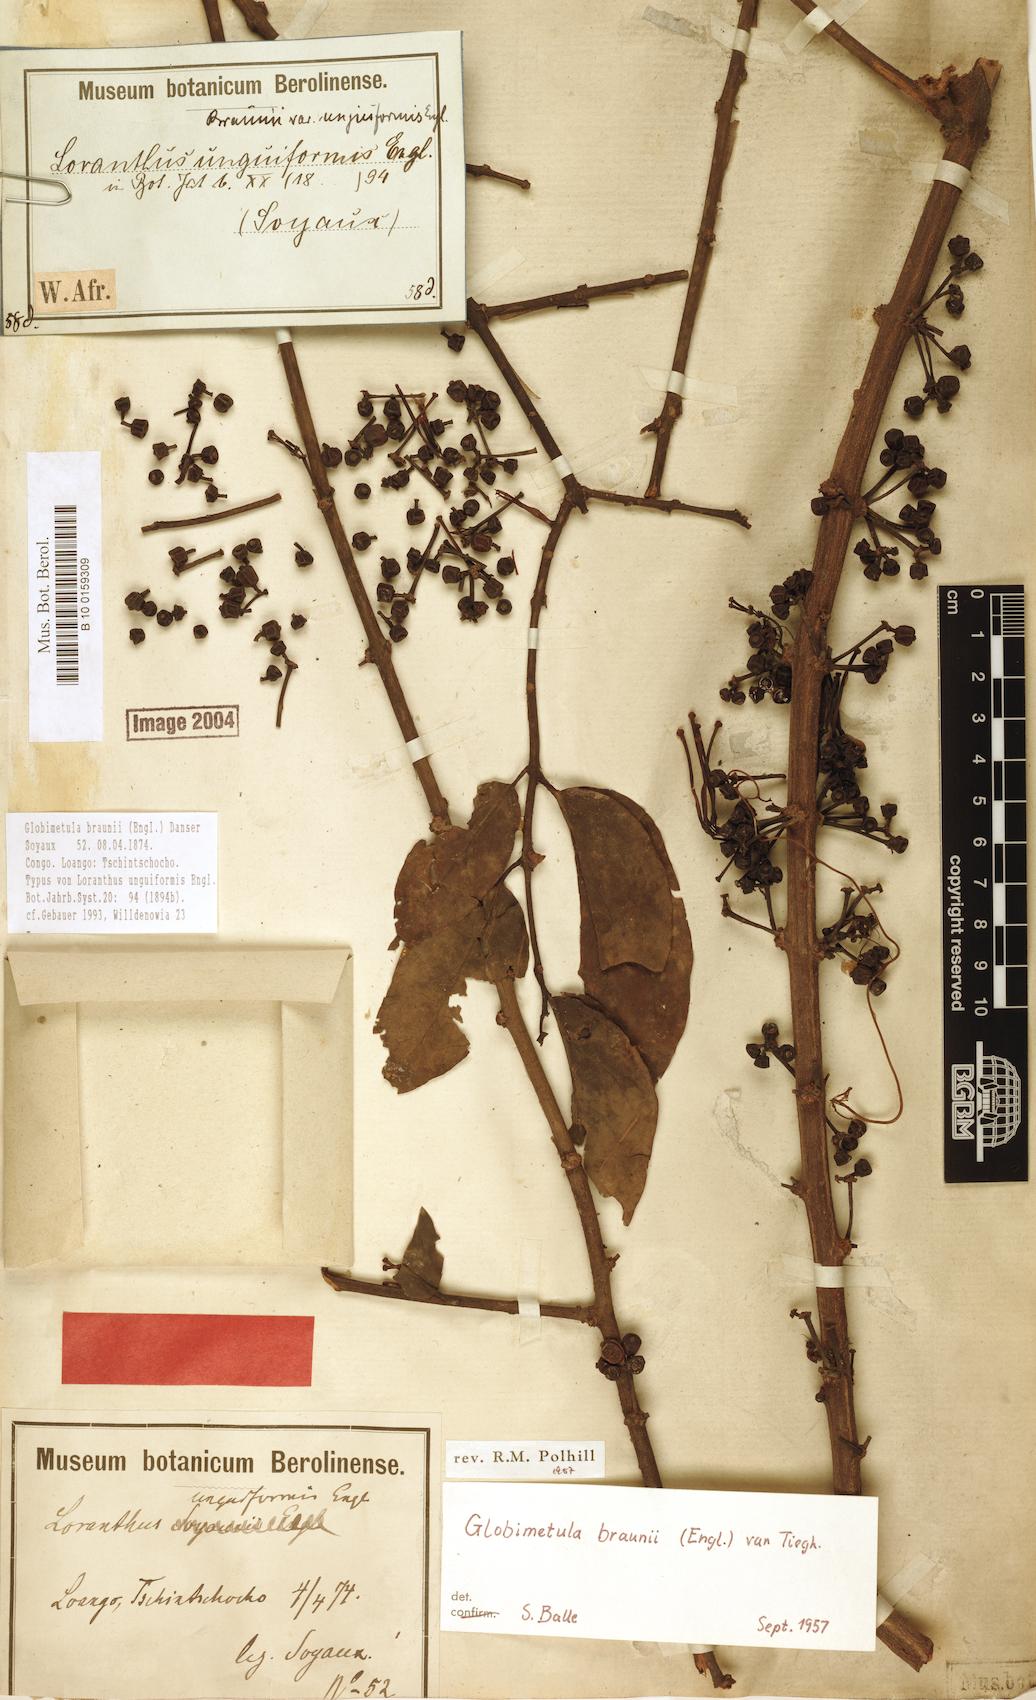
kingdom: Plantae
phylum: Tracheophyta
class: Magnoliopsida
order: Santalales
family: Loranthaceae
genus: Globimetula
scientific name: Globimetula braunii
